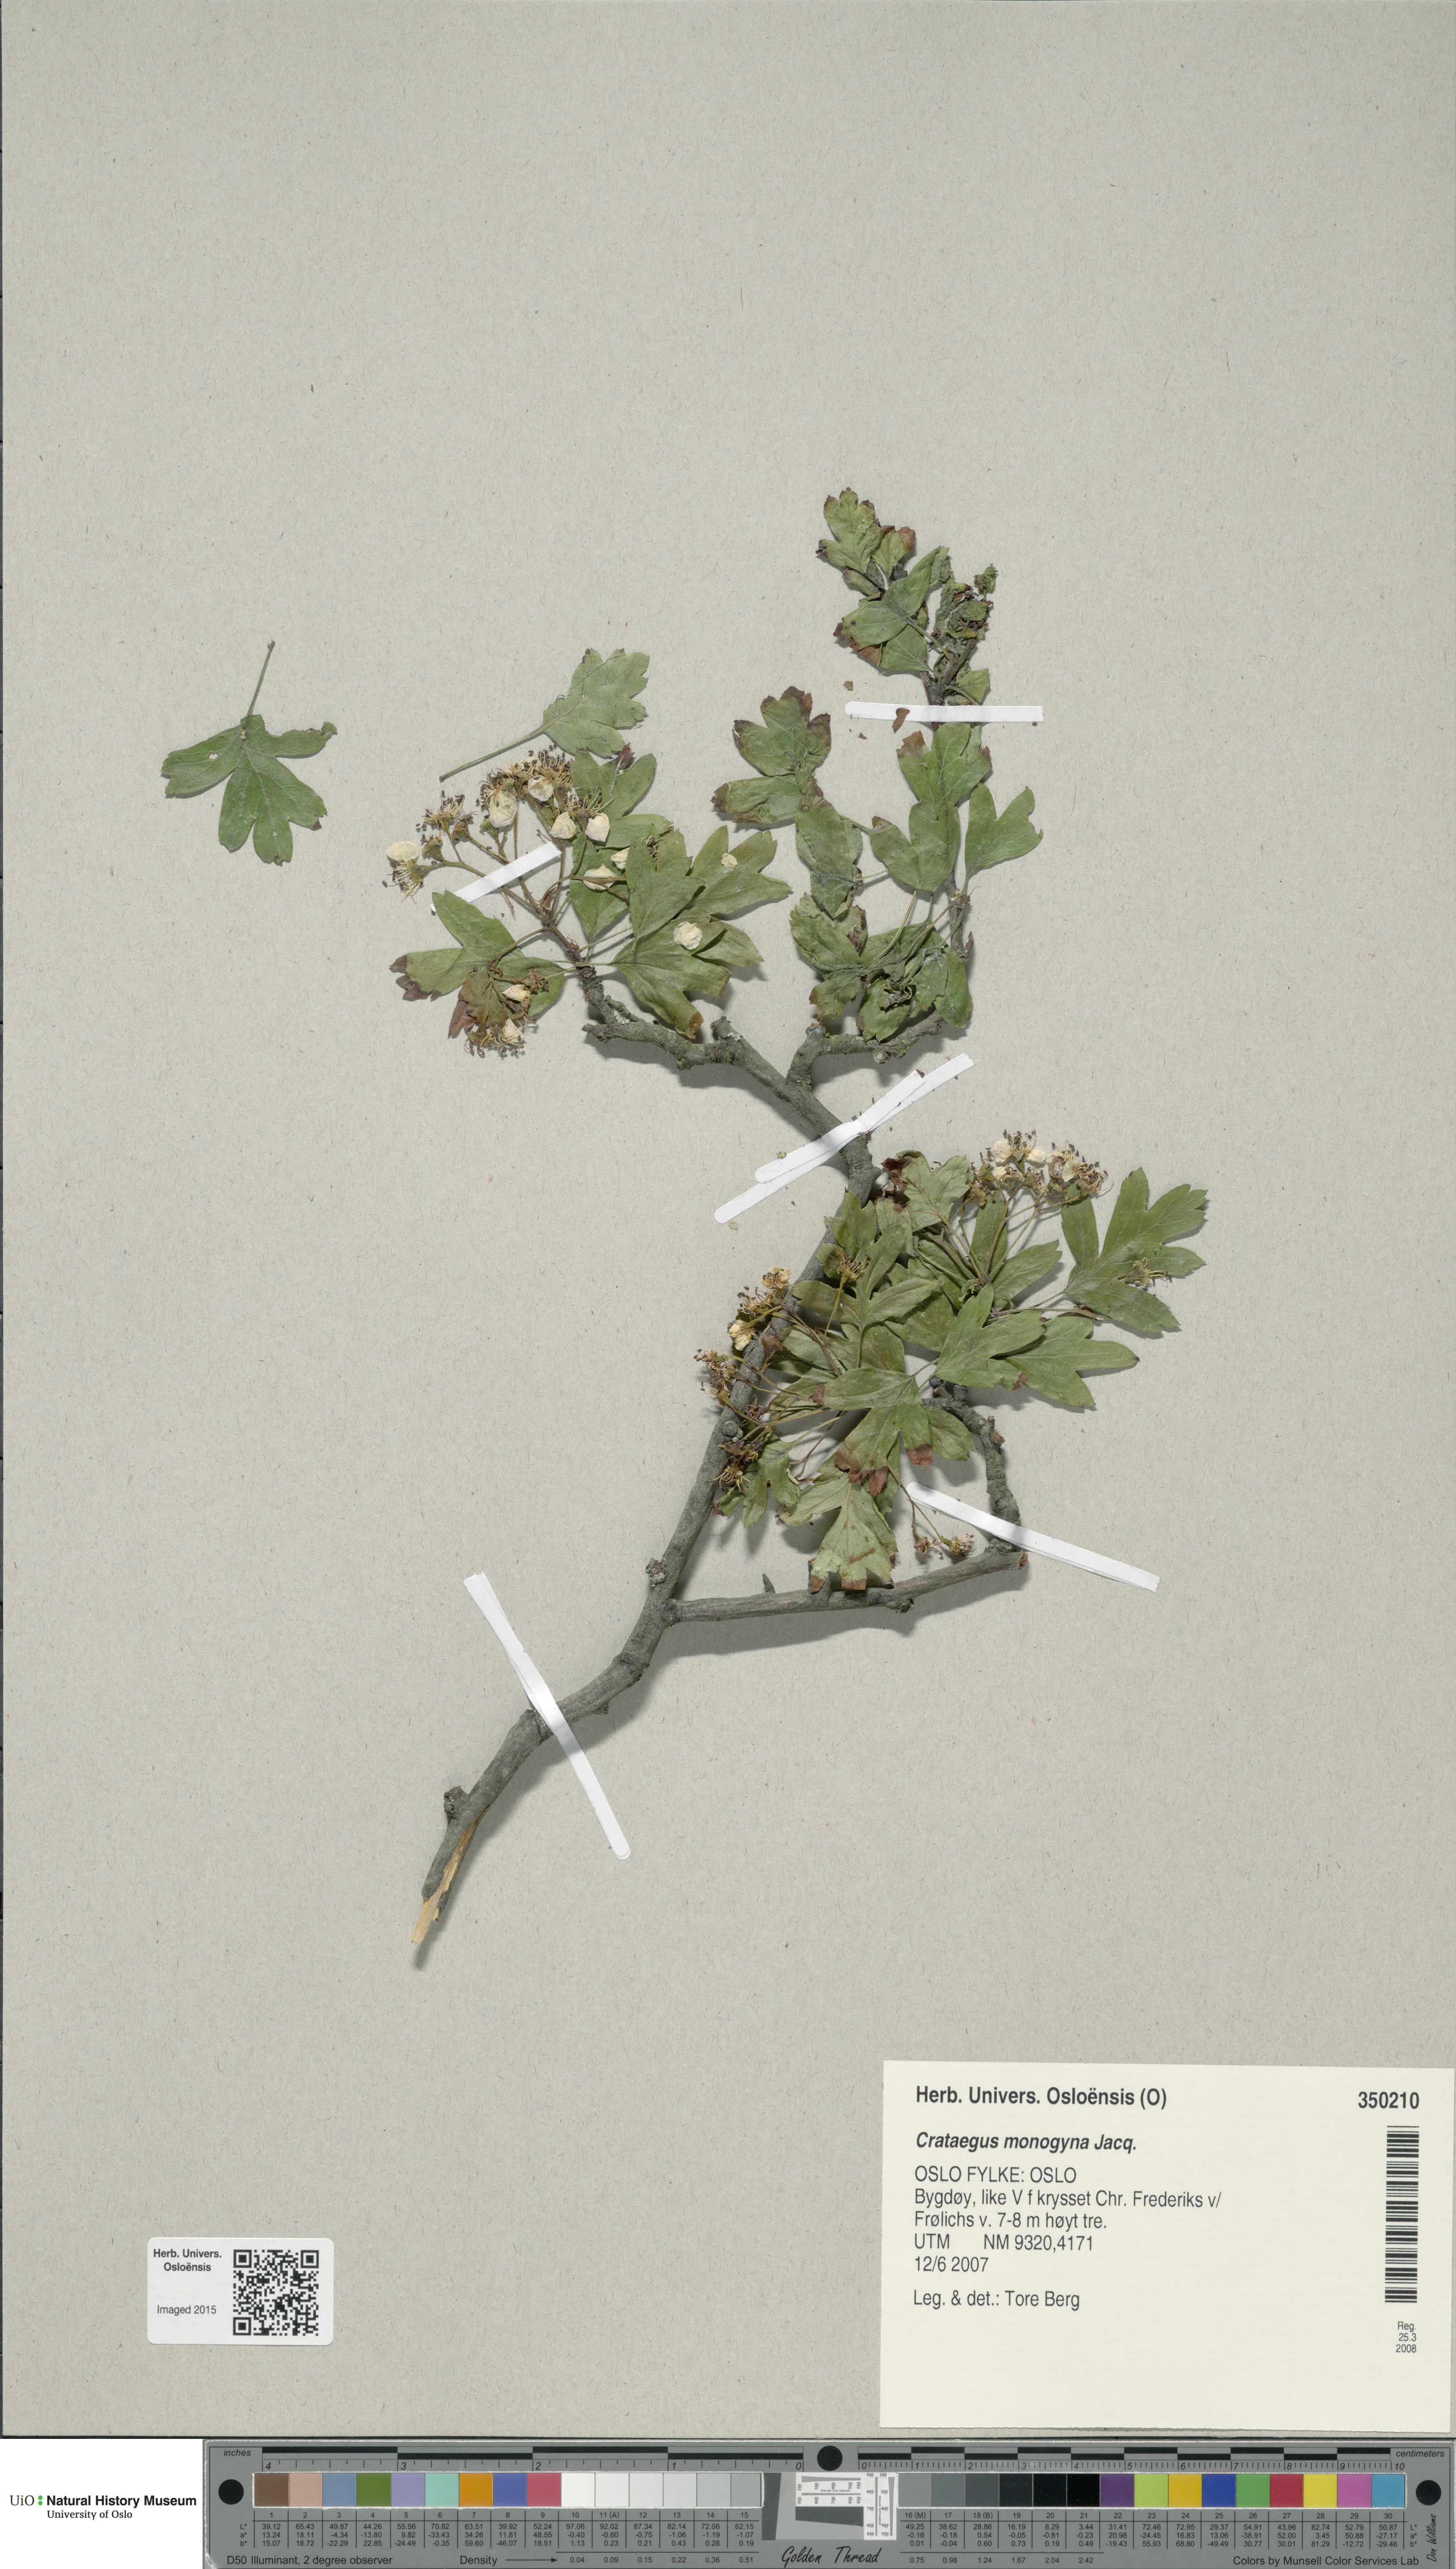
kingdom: Plantae
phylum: Tracheophyta
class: Magnoliopsida
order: Rosales
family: Rosaceae
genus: Crataegus
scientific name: Crataegus monogyna
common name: Hawthorn
